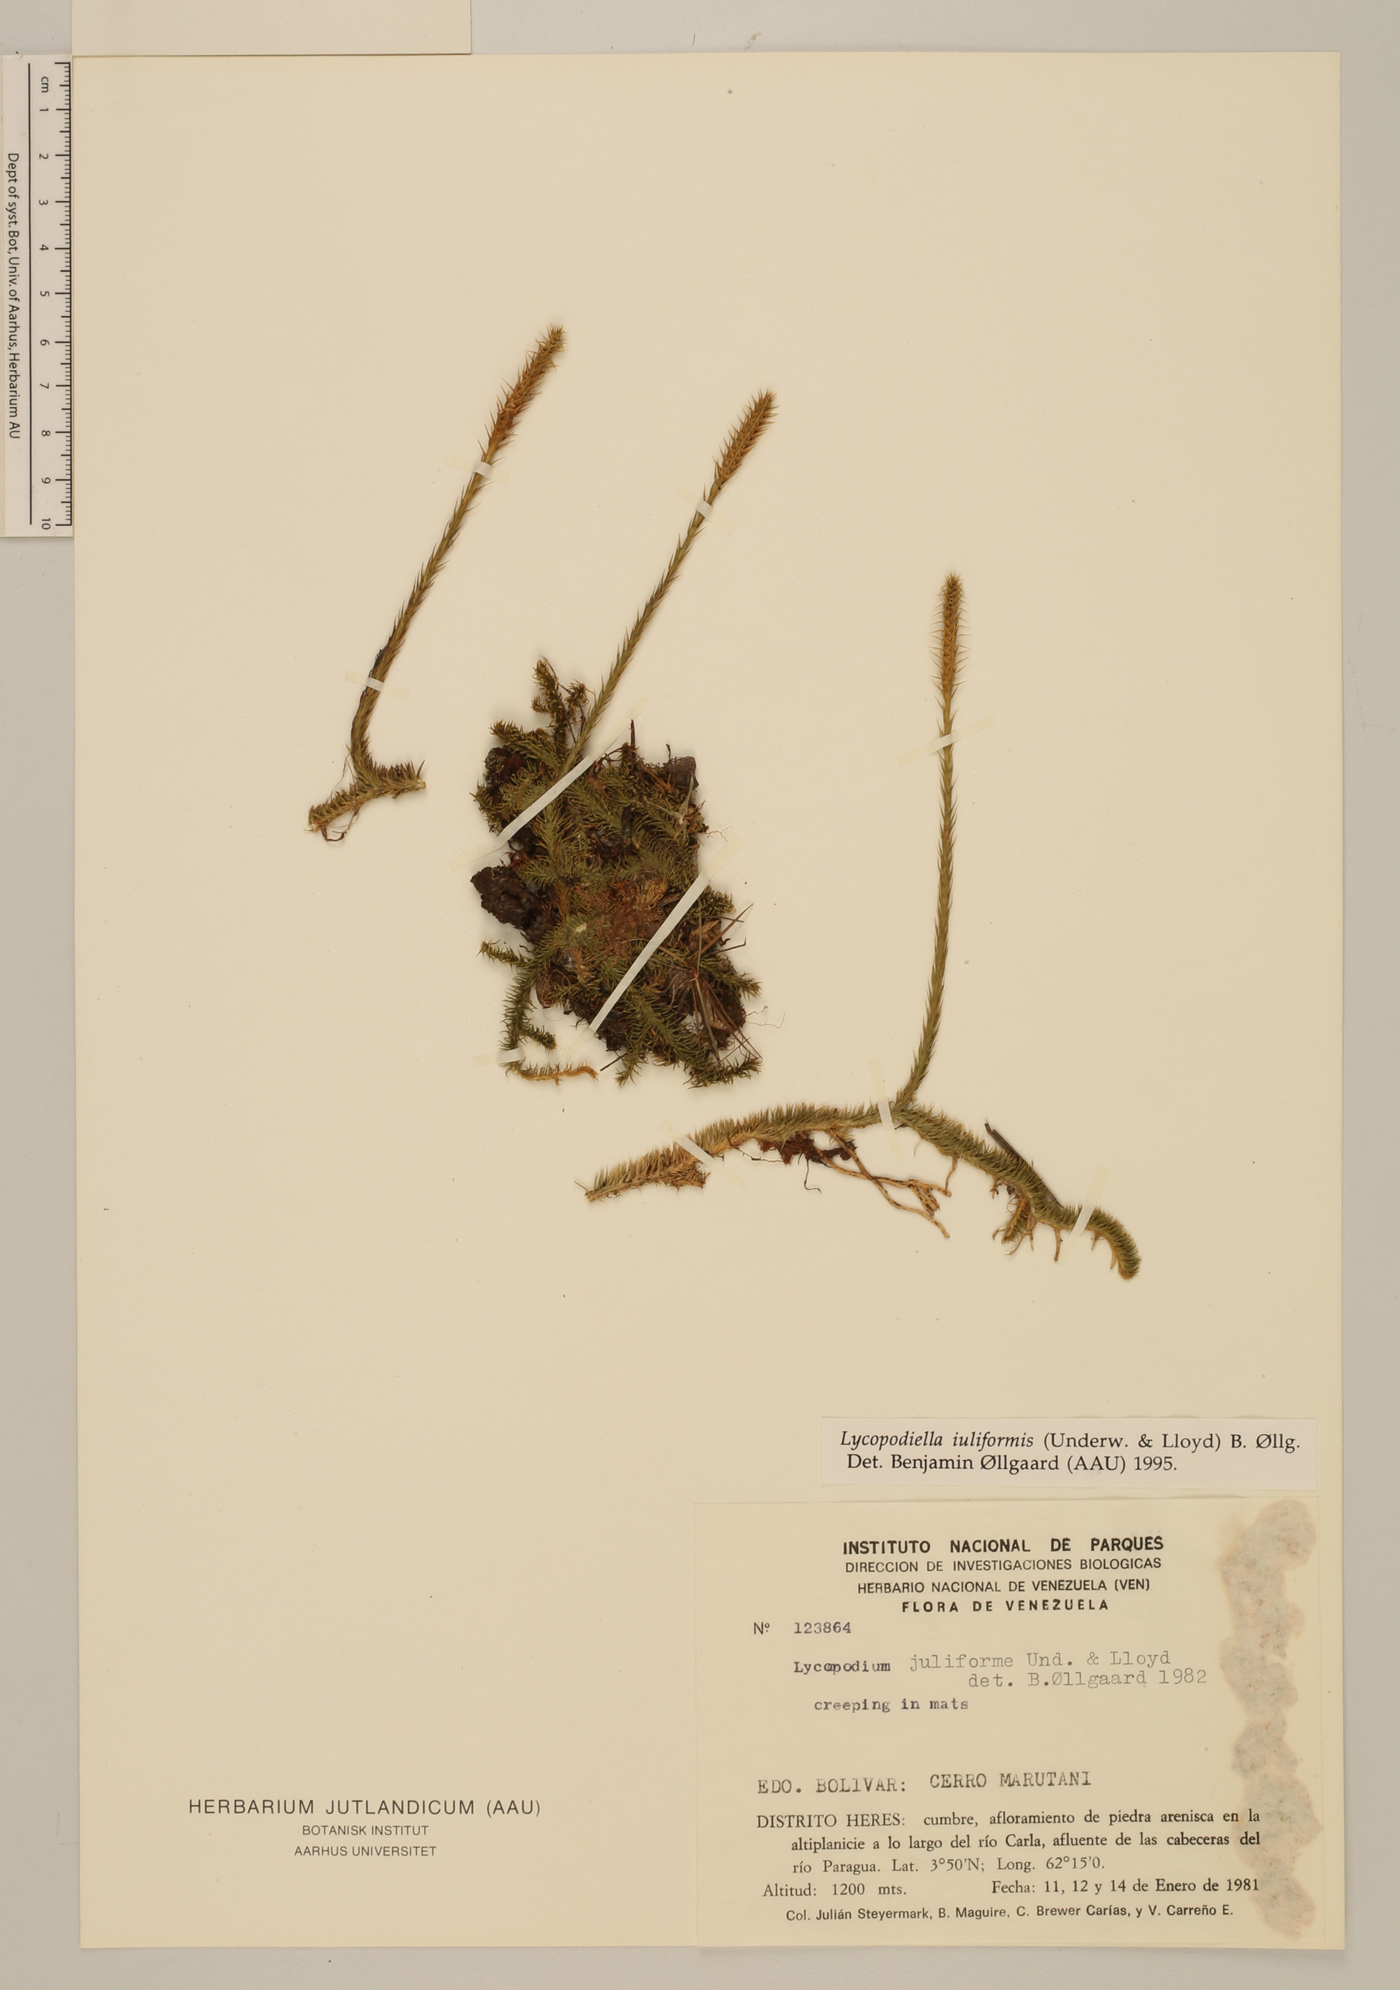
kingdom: Plantae
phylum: Tracheophyta
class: Lycopodiopsida
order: Lycopodiales
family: Lycopodiaceae
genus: Pseudolycopodiella
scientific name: Pseudolycopodiella iuliformis
